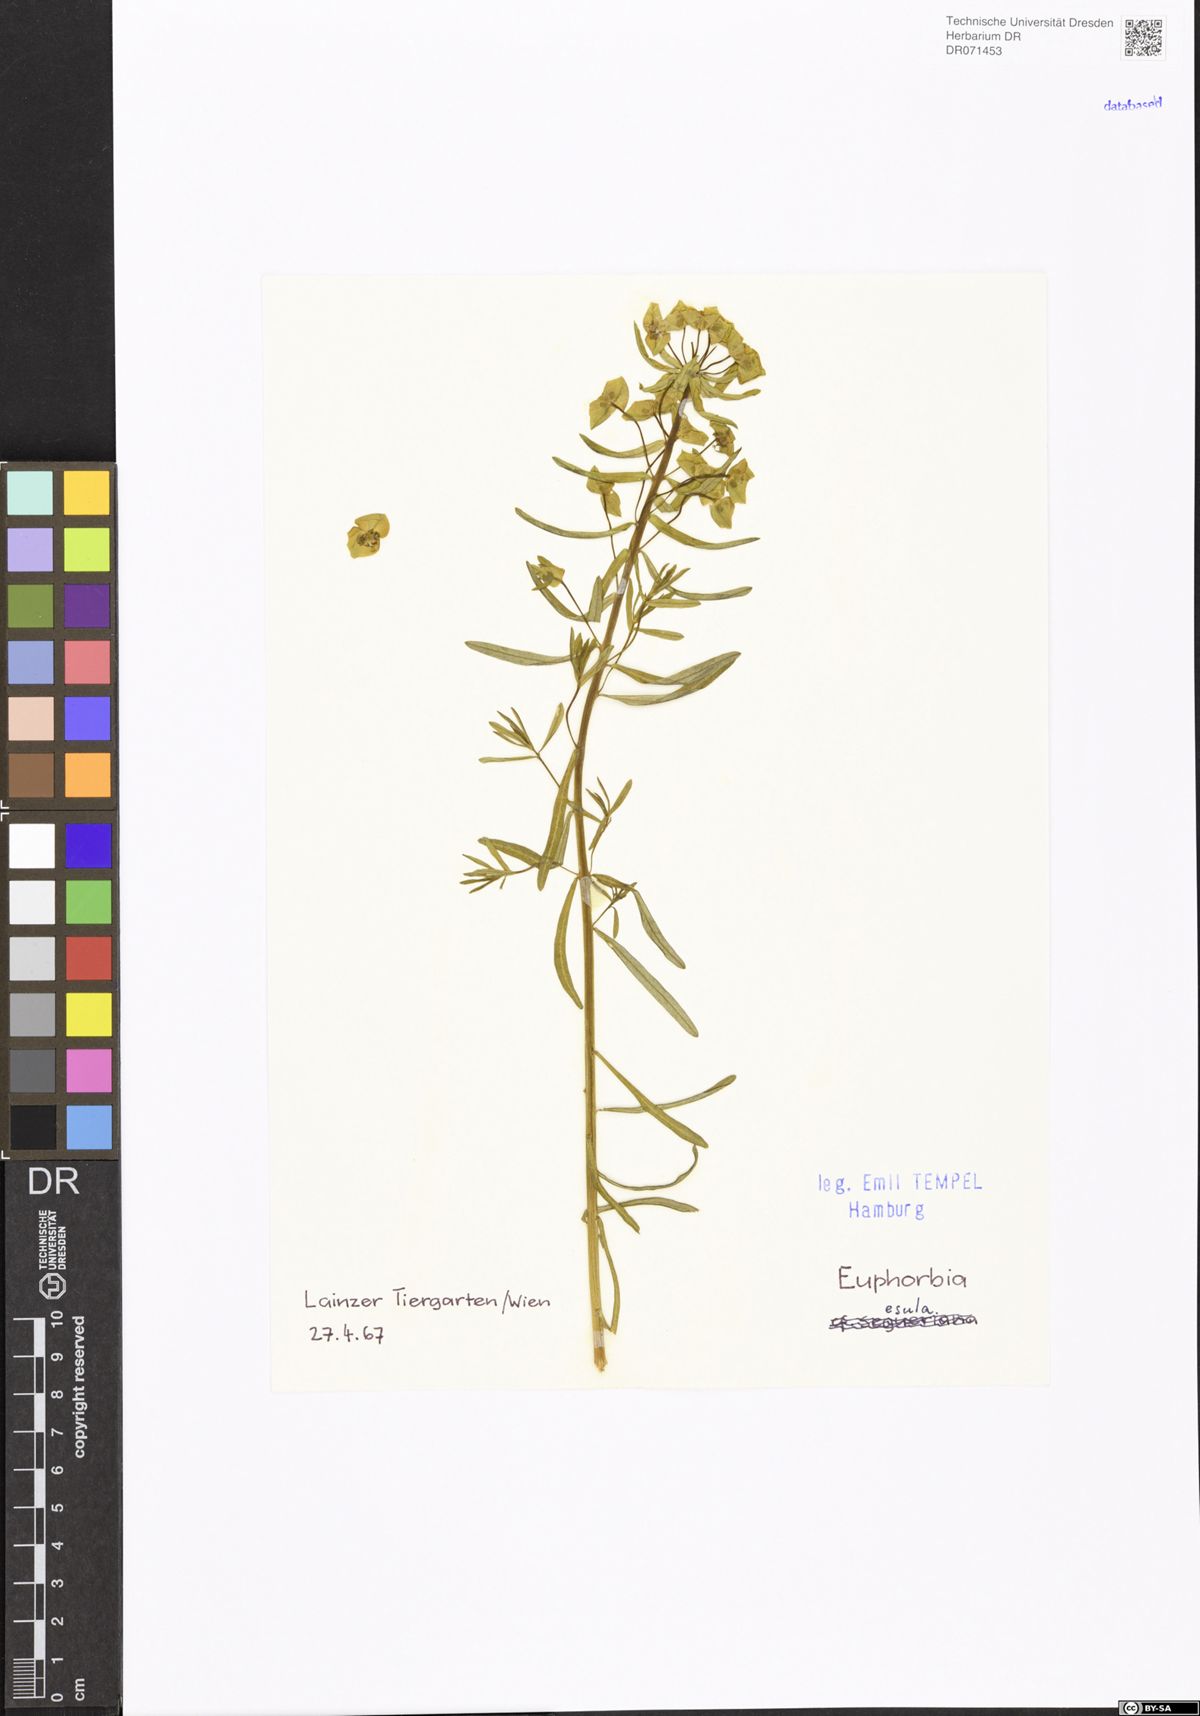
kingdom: Plantae
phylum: Tracheophyta
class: Magnoliopsida
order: Malpighiales
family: Euphorbiaceae
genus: Euphorbia
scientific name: Euphorbia esula
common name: Leafy spurge
